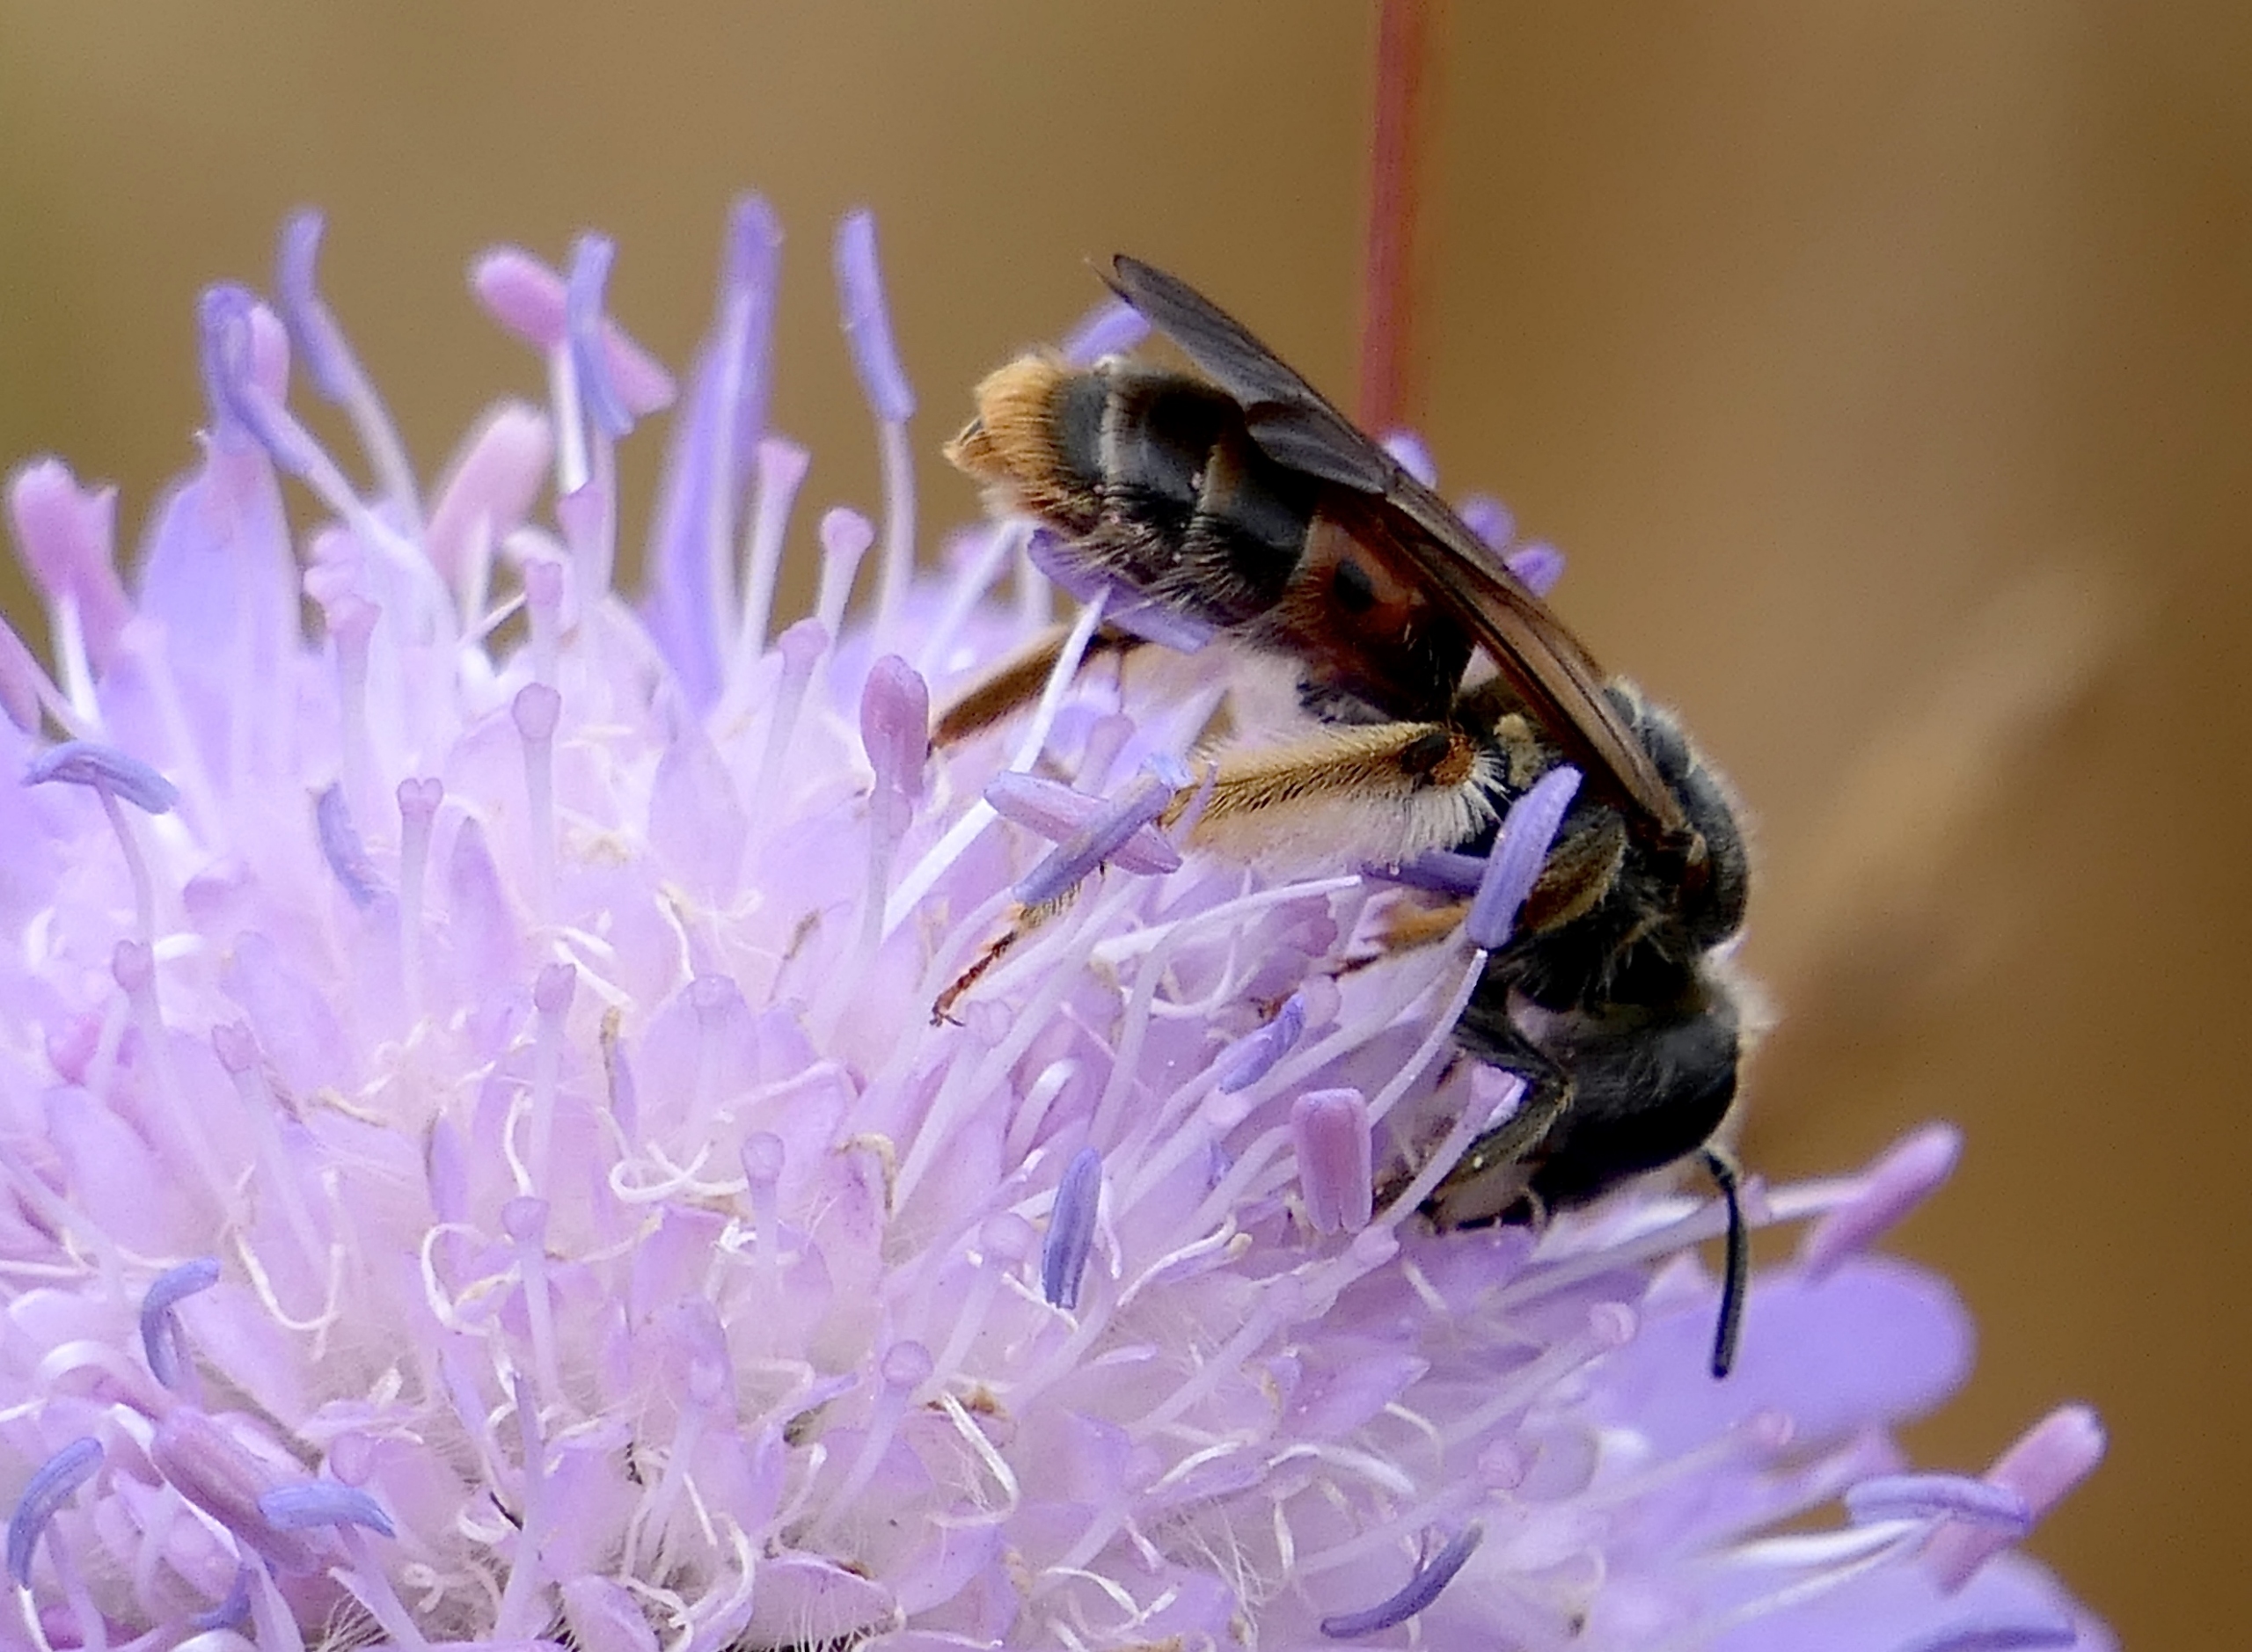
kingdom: Animalia
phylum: Arthropoda
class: Insecta
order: Hymenoptera
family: Andrenidae
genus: Andrena
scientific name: Andrena hattorfiana
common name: Blåhatjordbi
